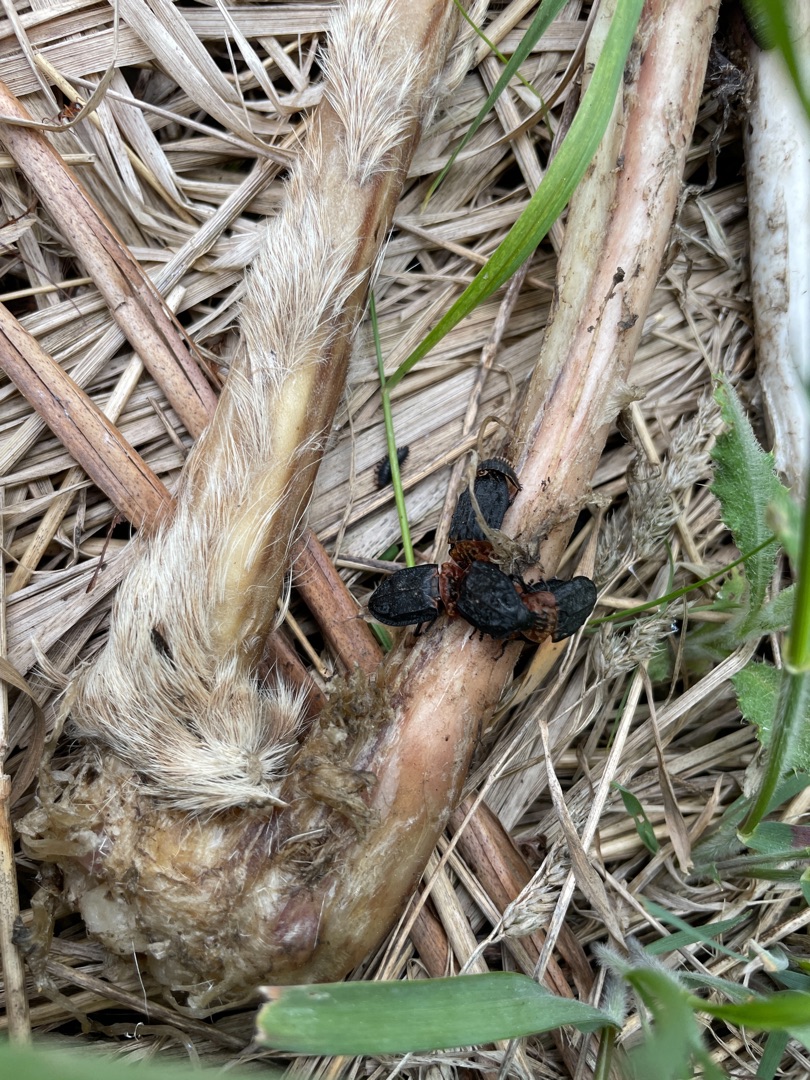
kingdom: Animalia
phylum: Arthropoda
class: Insecta
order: Coleoptera
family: Staphylinidae
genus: Oiceoptoma
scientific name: Oiceoptoma thoracicum
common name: Rødbrystet ådselbille
